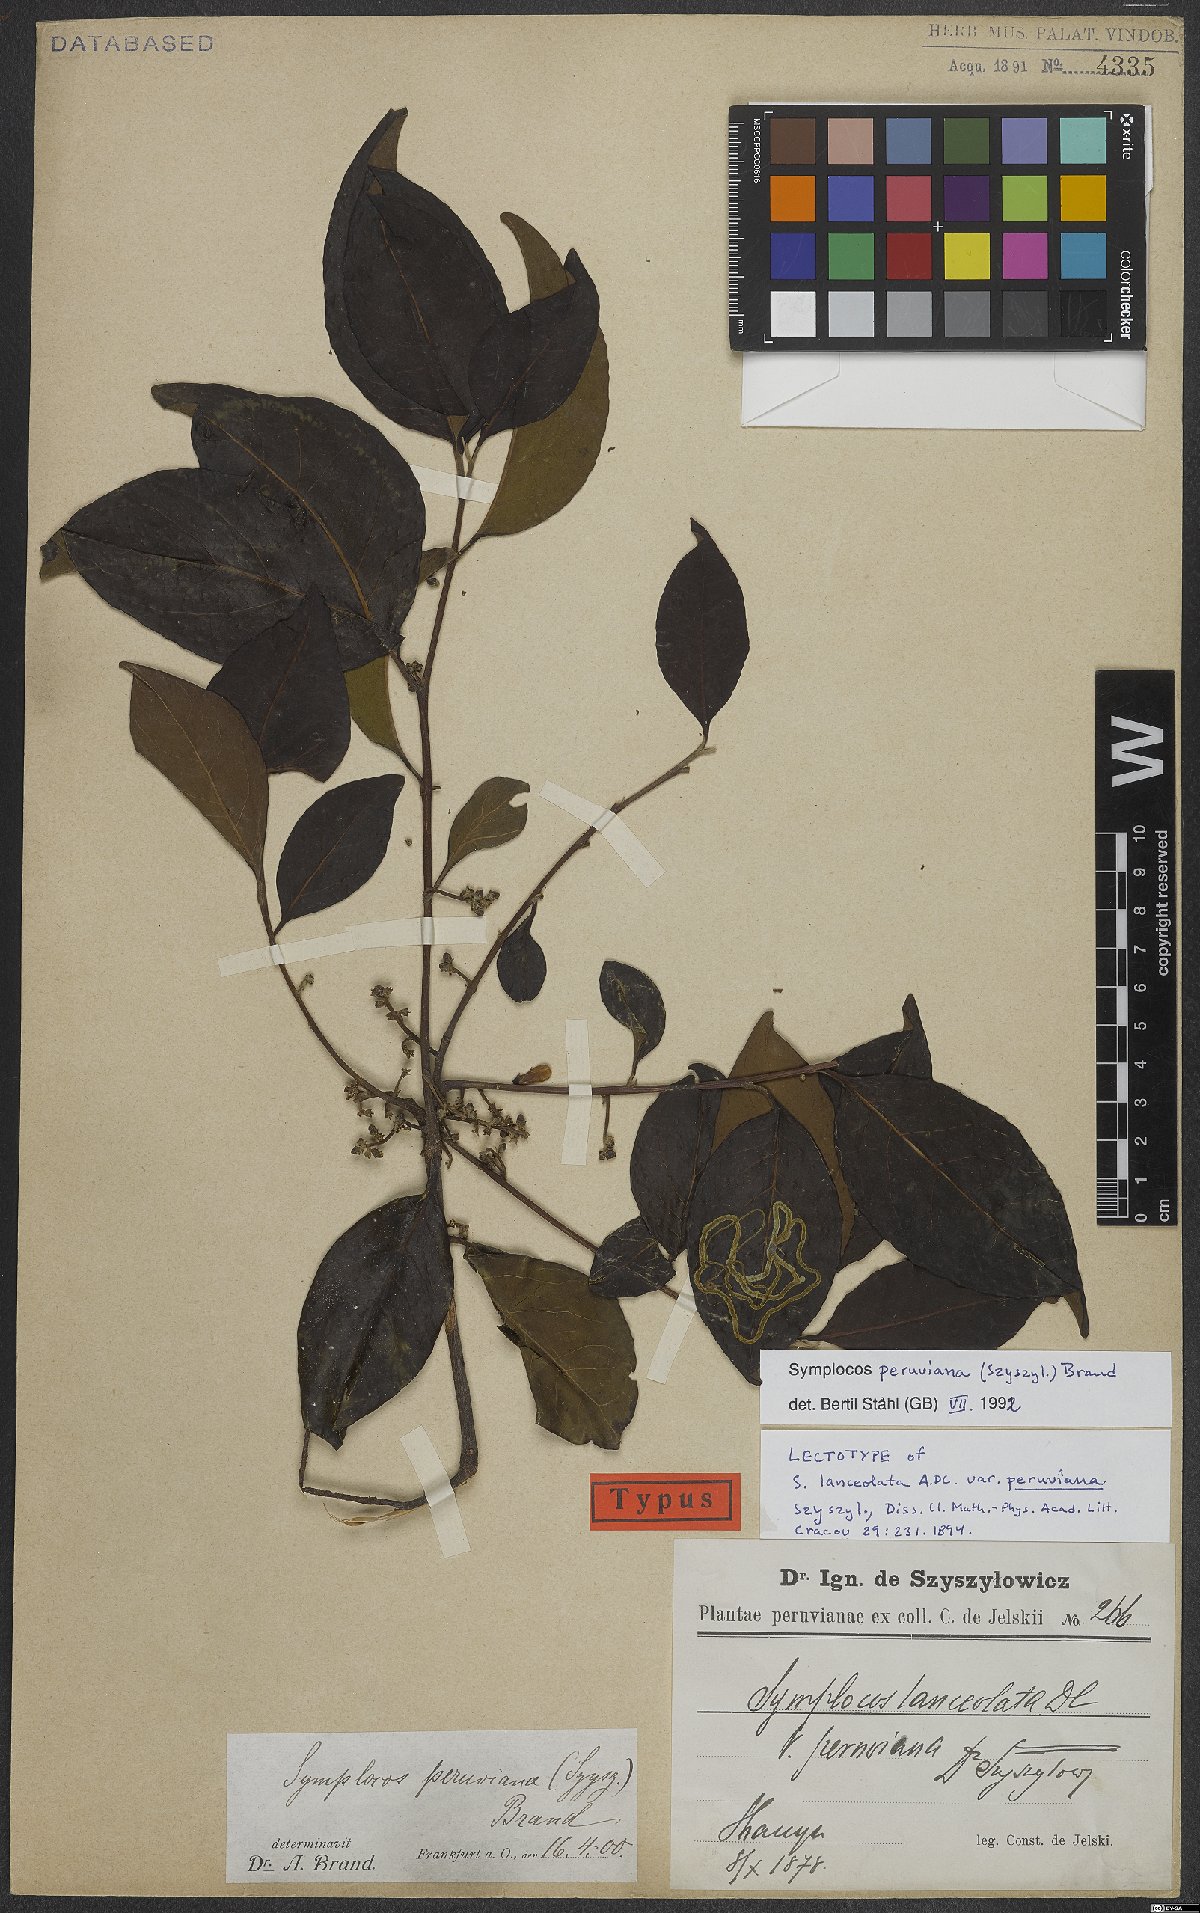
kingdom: Plantae
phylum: Tracheophyta
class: Magnoliopsida
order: Ericales
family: Symplocaceae
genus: Symplocos
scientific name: Symplocos peruviana
